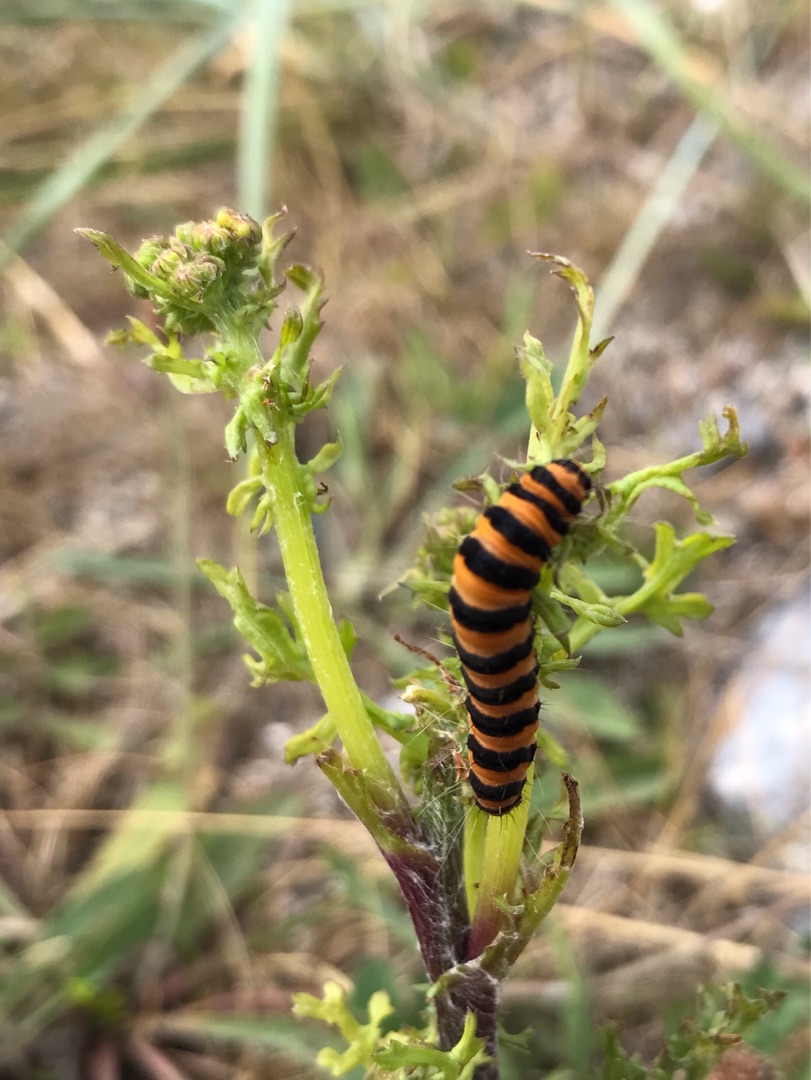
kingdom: Animalia
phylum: Arthropoda
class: Insecta
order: Lepidoptera
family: Erebidae
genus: Tyria
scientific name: Tyria jacobaeae
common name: Blodplet
